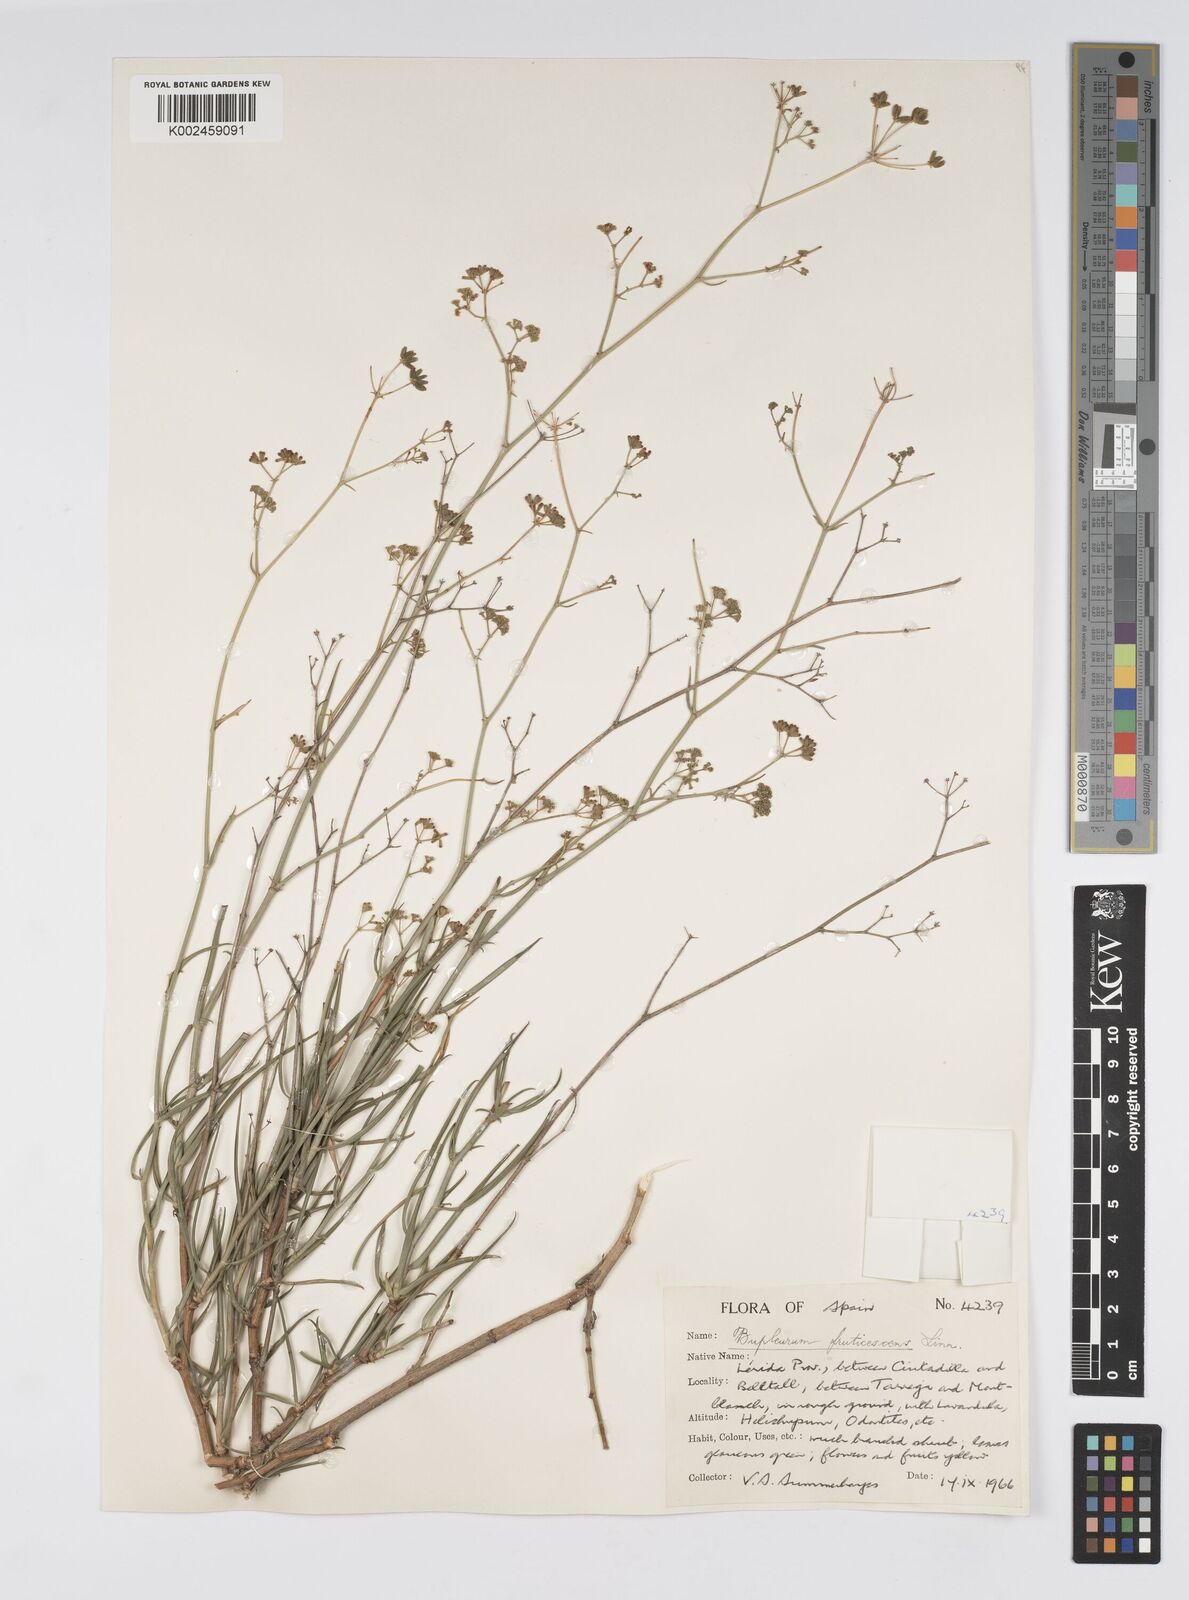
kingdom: Plantae
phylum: Tracheophyta
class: Magnoliopsida
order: Apiales
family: Apiaceae
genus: Bupleurum
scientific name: Bupleurum fruticescens
